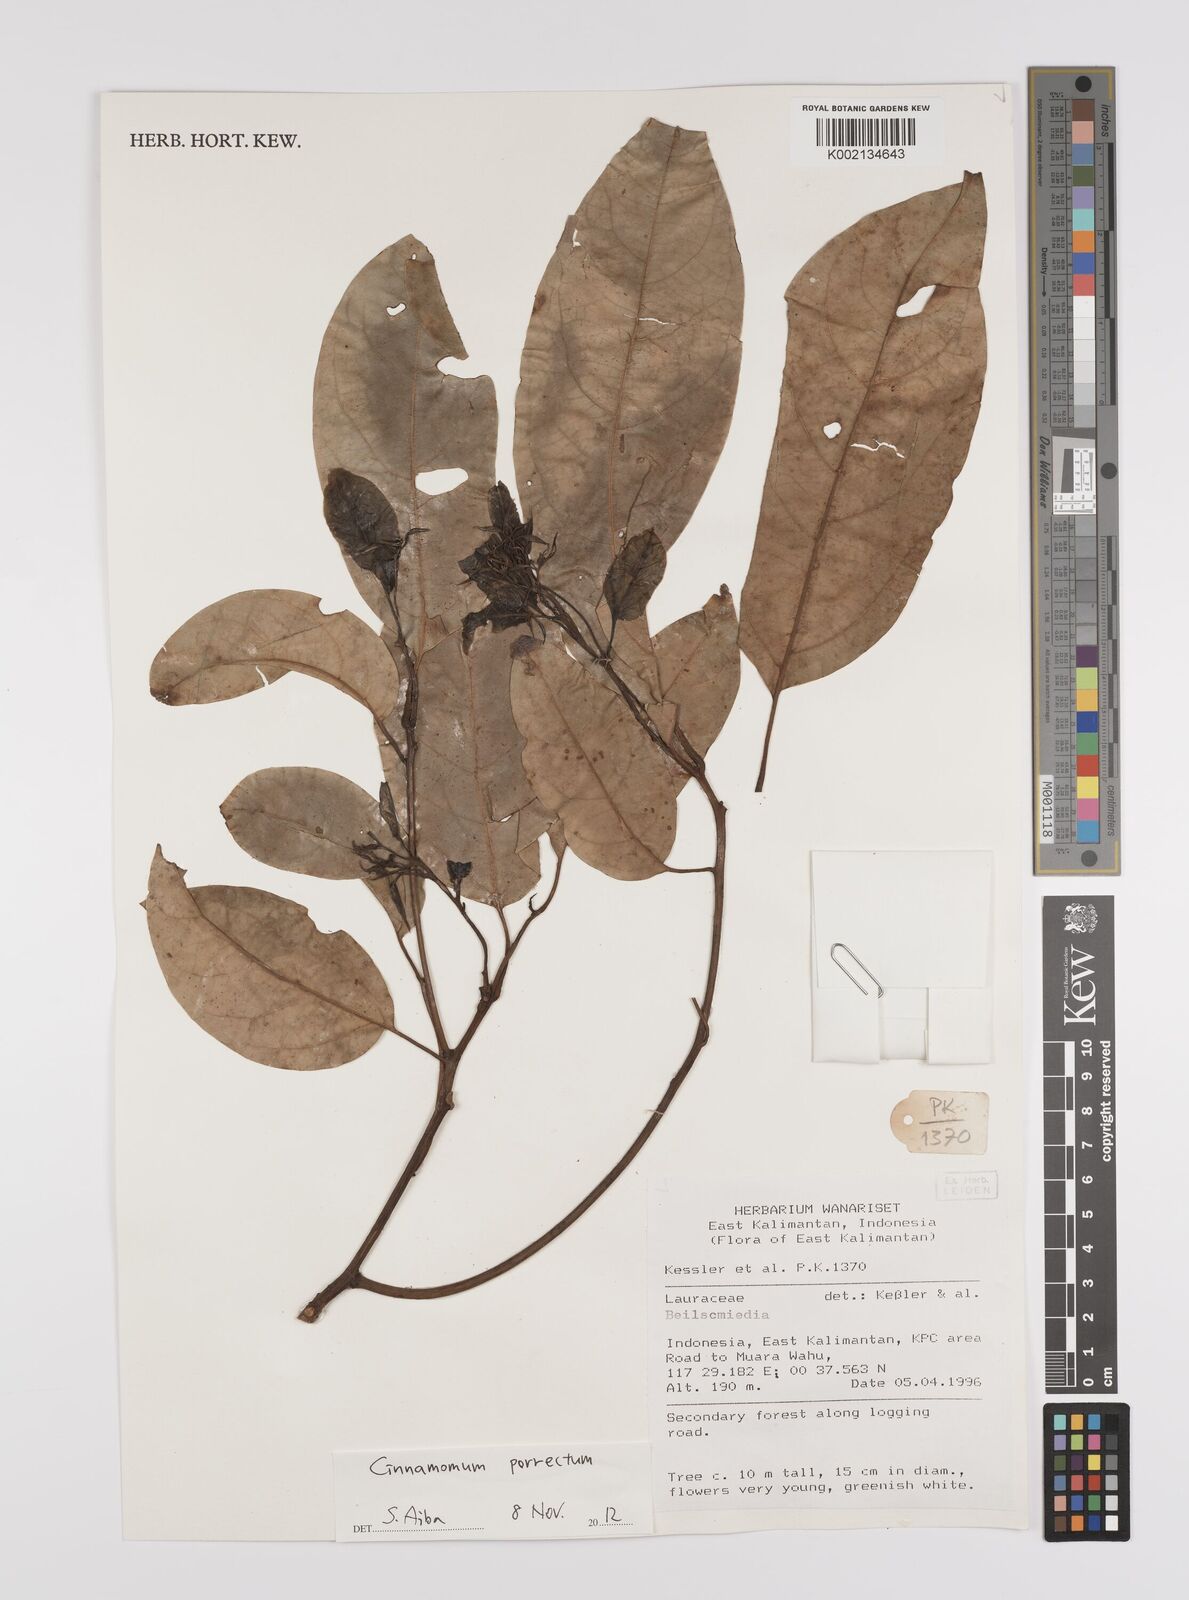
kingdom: Plantae
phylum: Tracheophyta
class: Magnoliopsida
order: Laurales
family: Lauraceae
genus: Cinnamomum
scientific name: Cinnamomum parthenoxylon
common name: Martaban camphor wood
